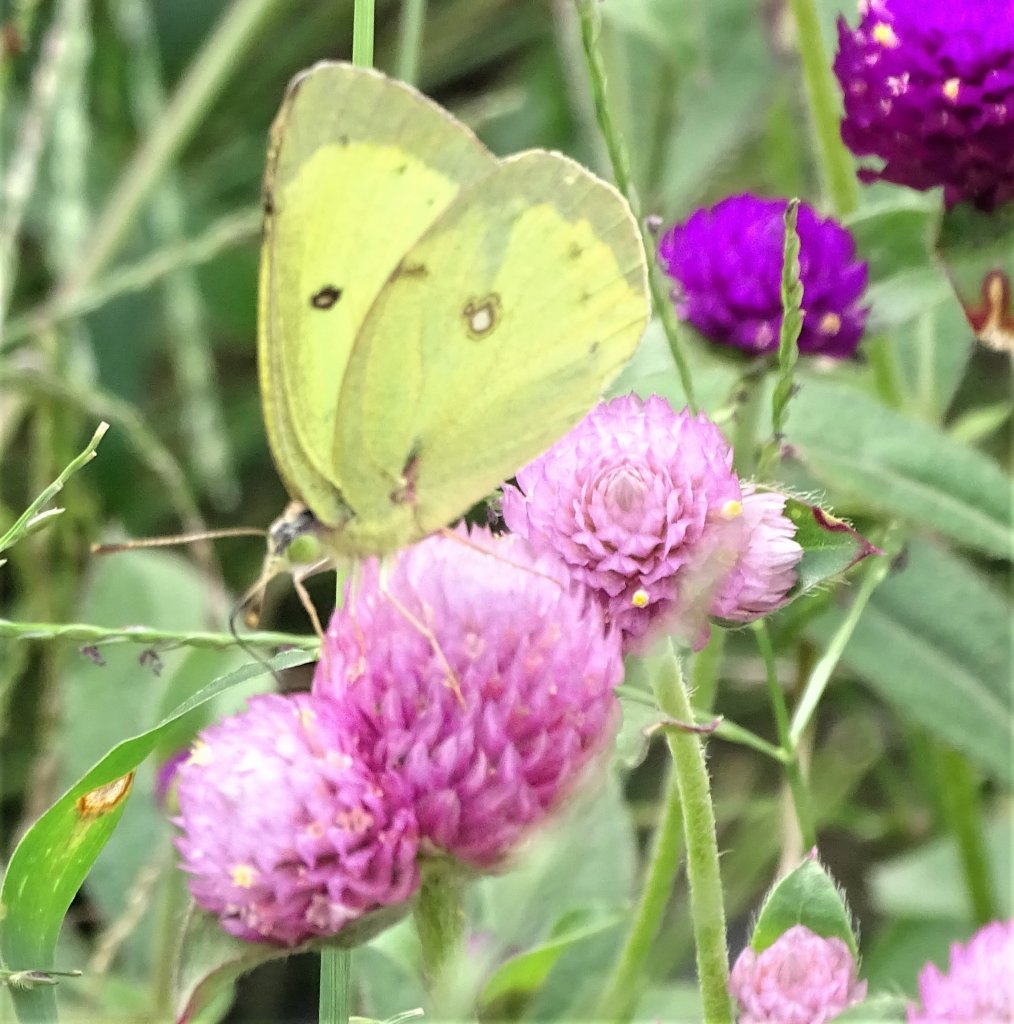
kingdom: Animalia
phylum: Arthropoda
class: Insecta
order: Lepidoptera
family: Pieridae
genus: Colias
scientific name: Colias philodice
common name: Clouded Sulphur
